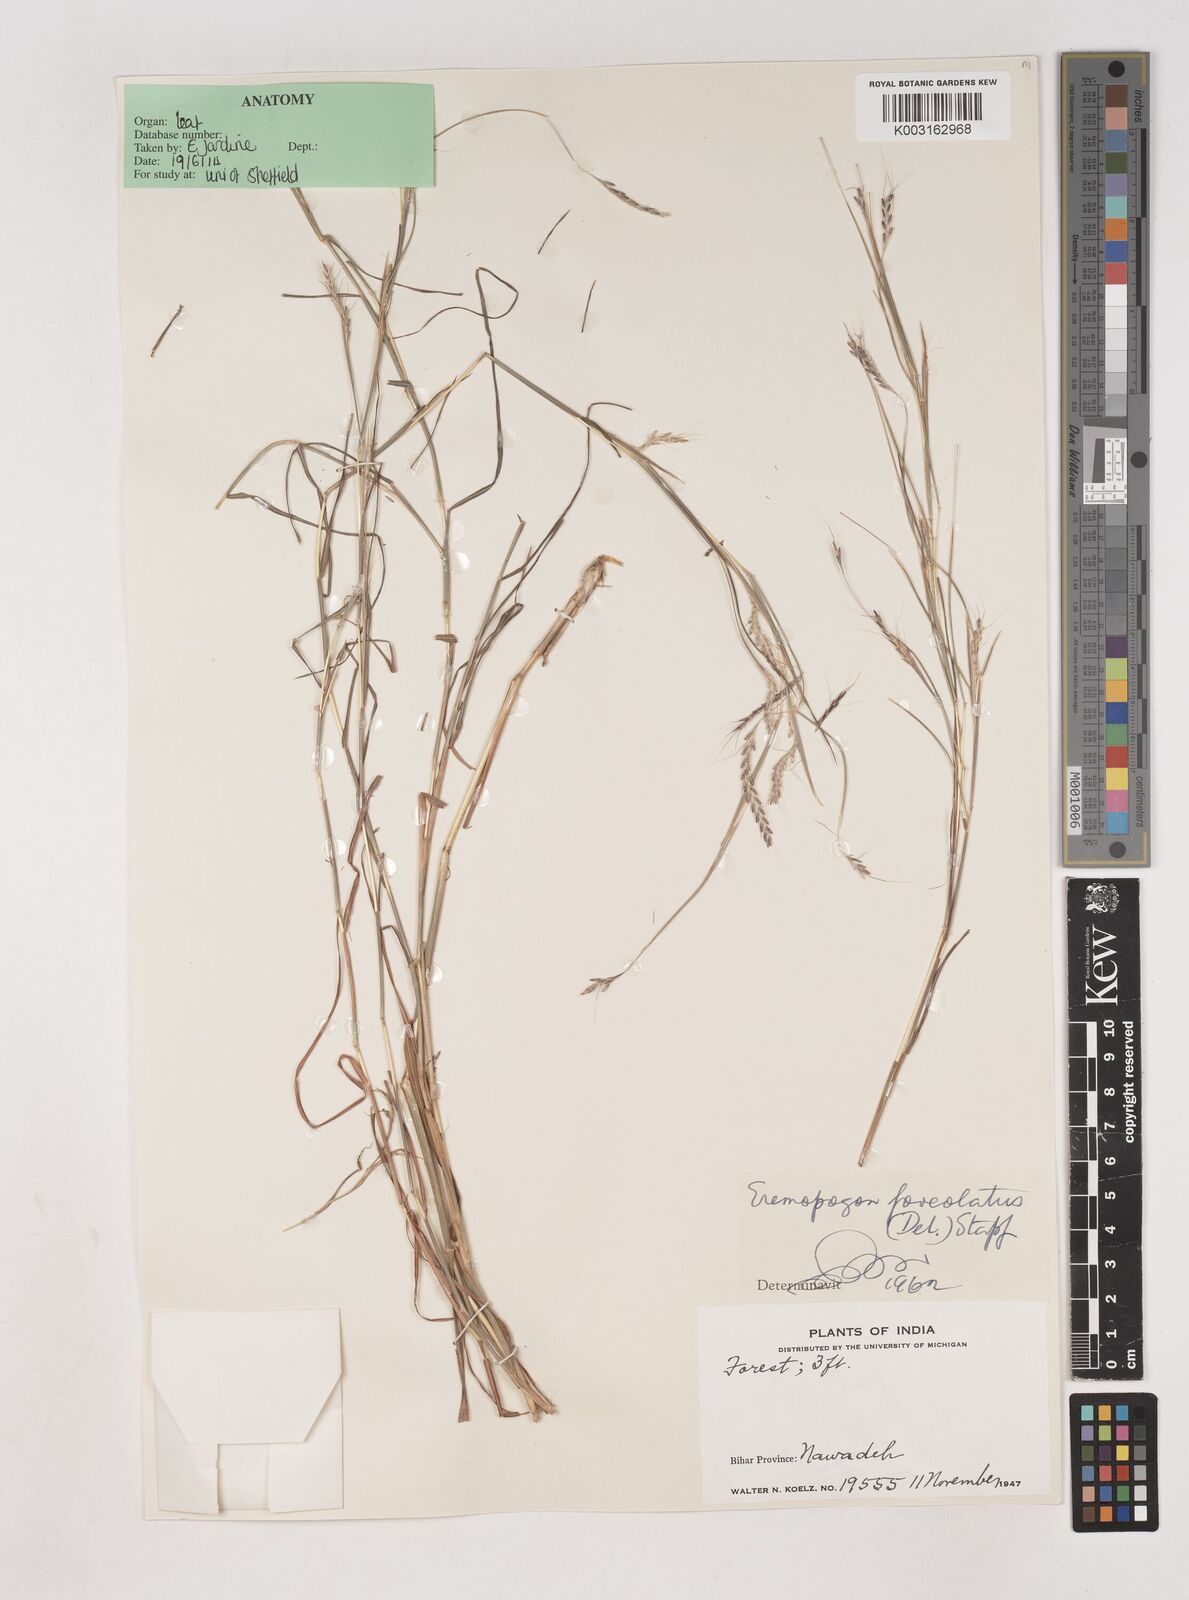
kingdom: Plantae
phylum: Tracheophyta
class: Liliopsida
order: Poales
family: Poaceae
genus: Dichanthium
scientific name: Dichanthium foveolatum
